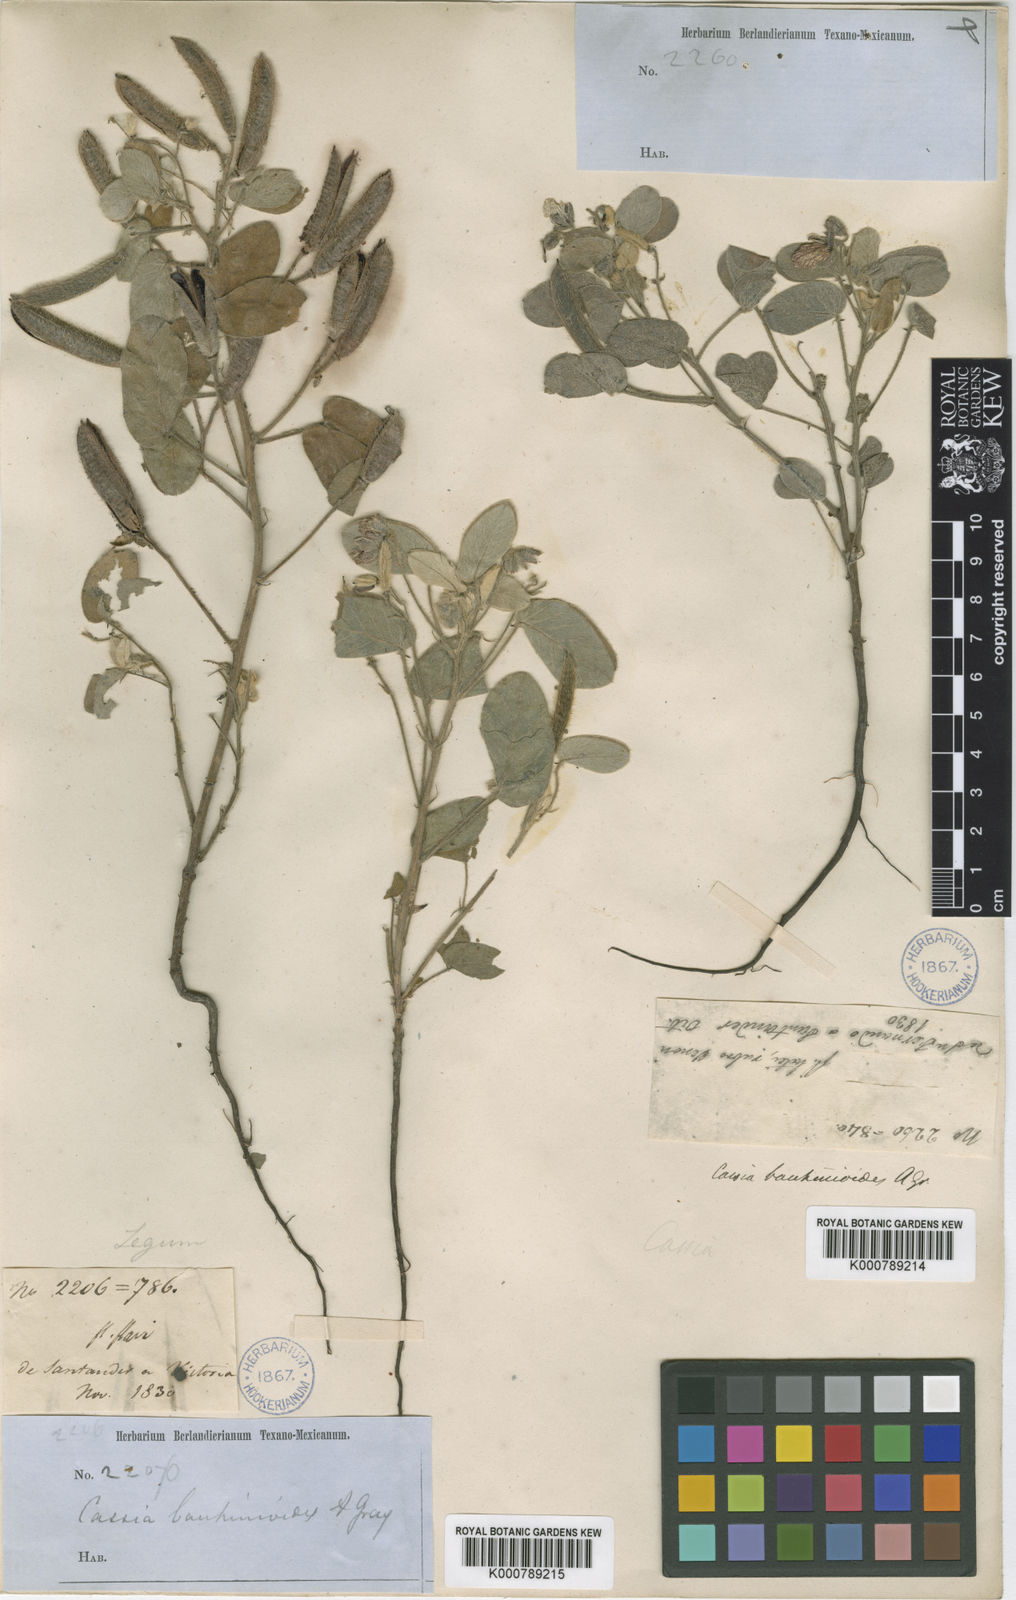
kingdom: Plantae
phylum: Tracheophyta
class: Magnoliopsida
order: Fabales
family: Fabaceae
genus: Senna
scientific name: Senna bauhinioides
